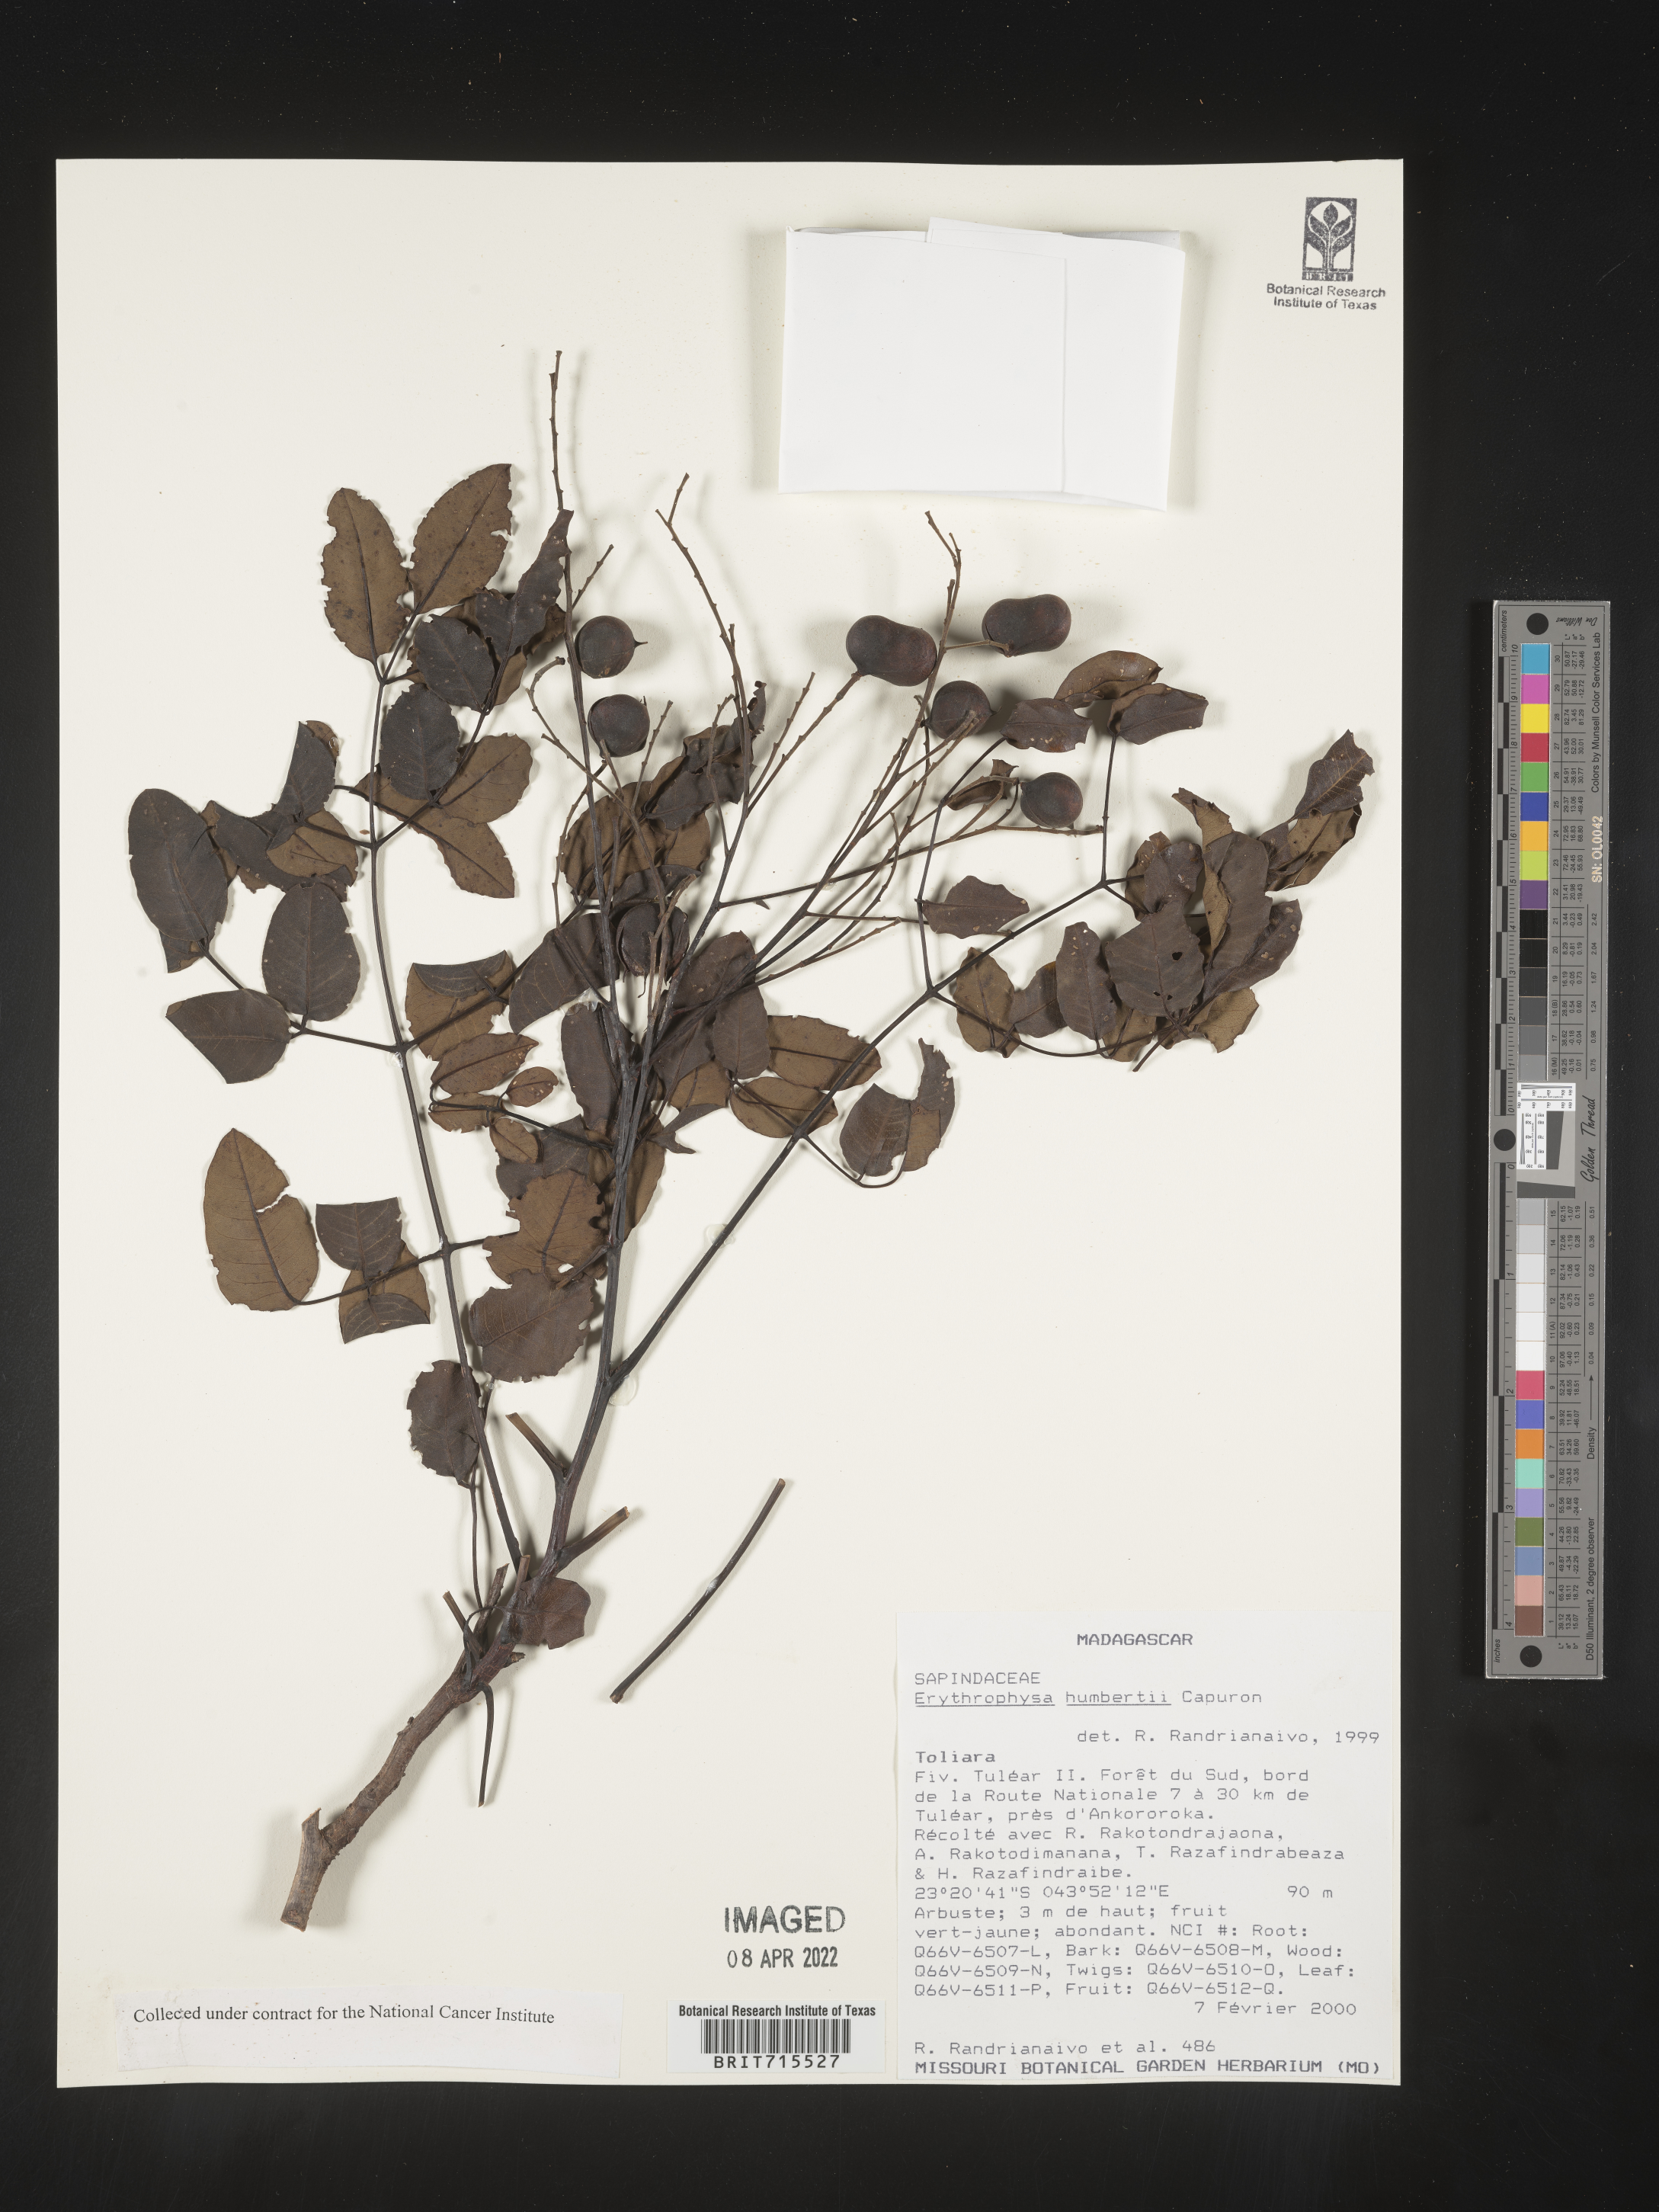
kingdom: Plantae
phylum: Tracheophyta
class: Magnoliopsida
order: Sapindales
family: Sapindaceae
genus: Erythrophysa
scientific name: Erythrophysa
